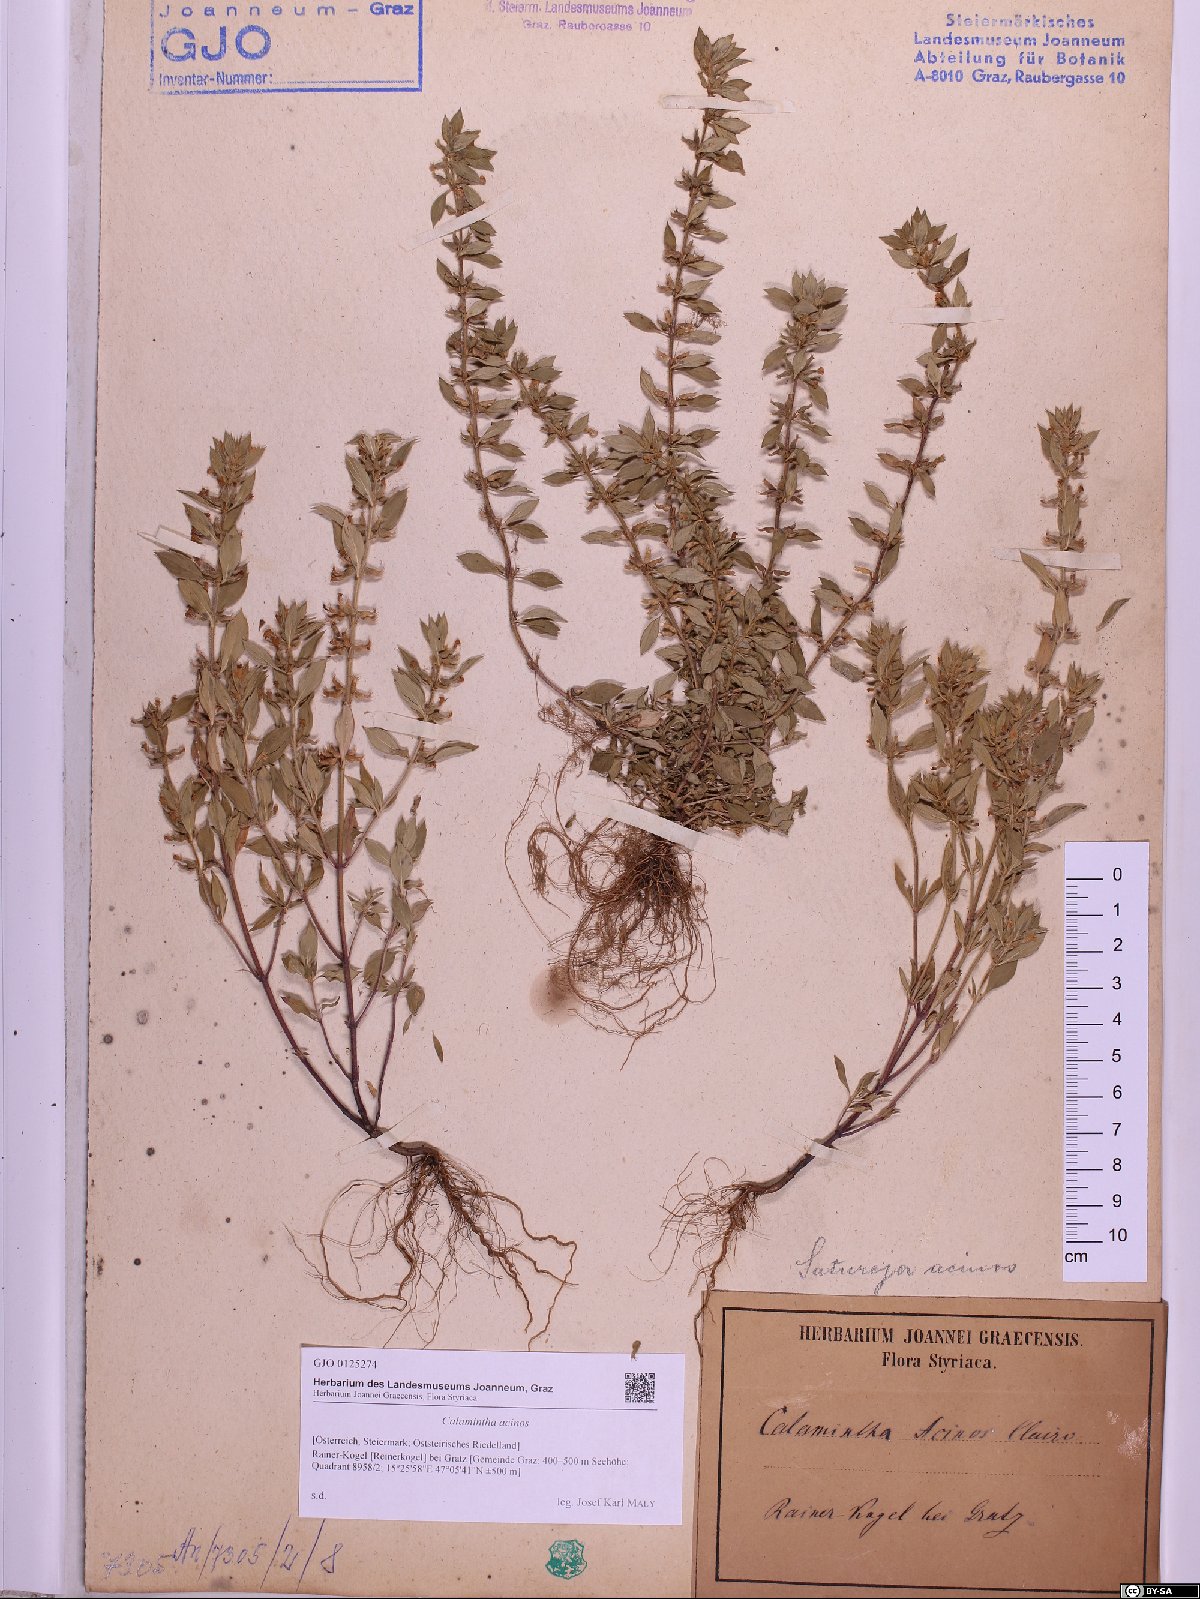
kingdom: Plantae
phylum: Tracheophyta
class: Magnoliopsida
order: Lamiales
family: Lamiaceae
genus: Clinopodium
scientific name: Clinopodium acinos
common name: Basil thyme
